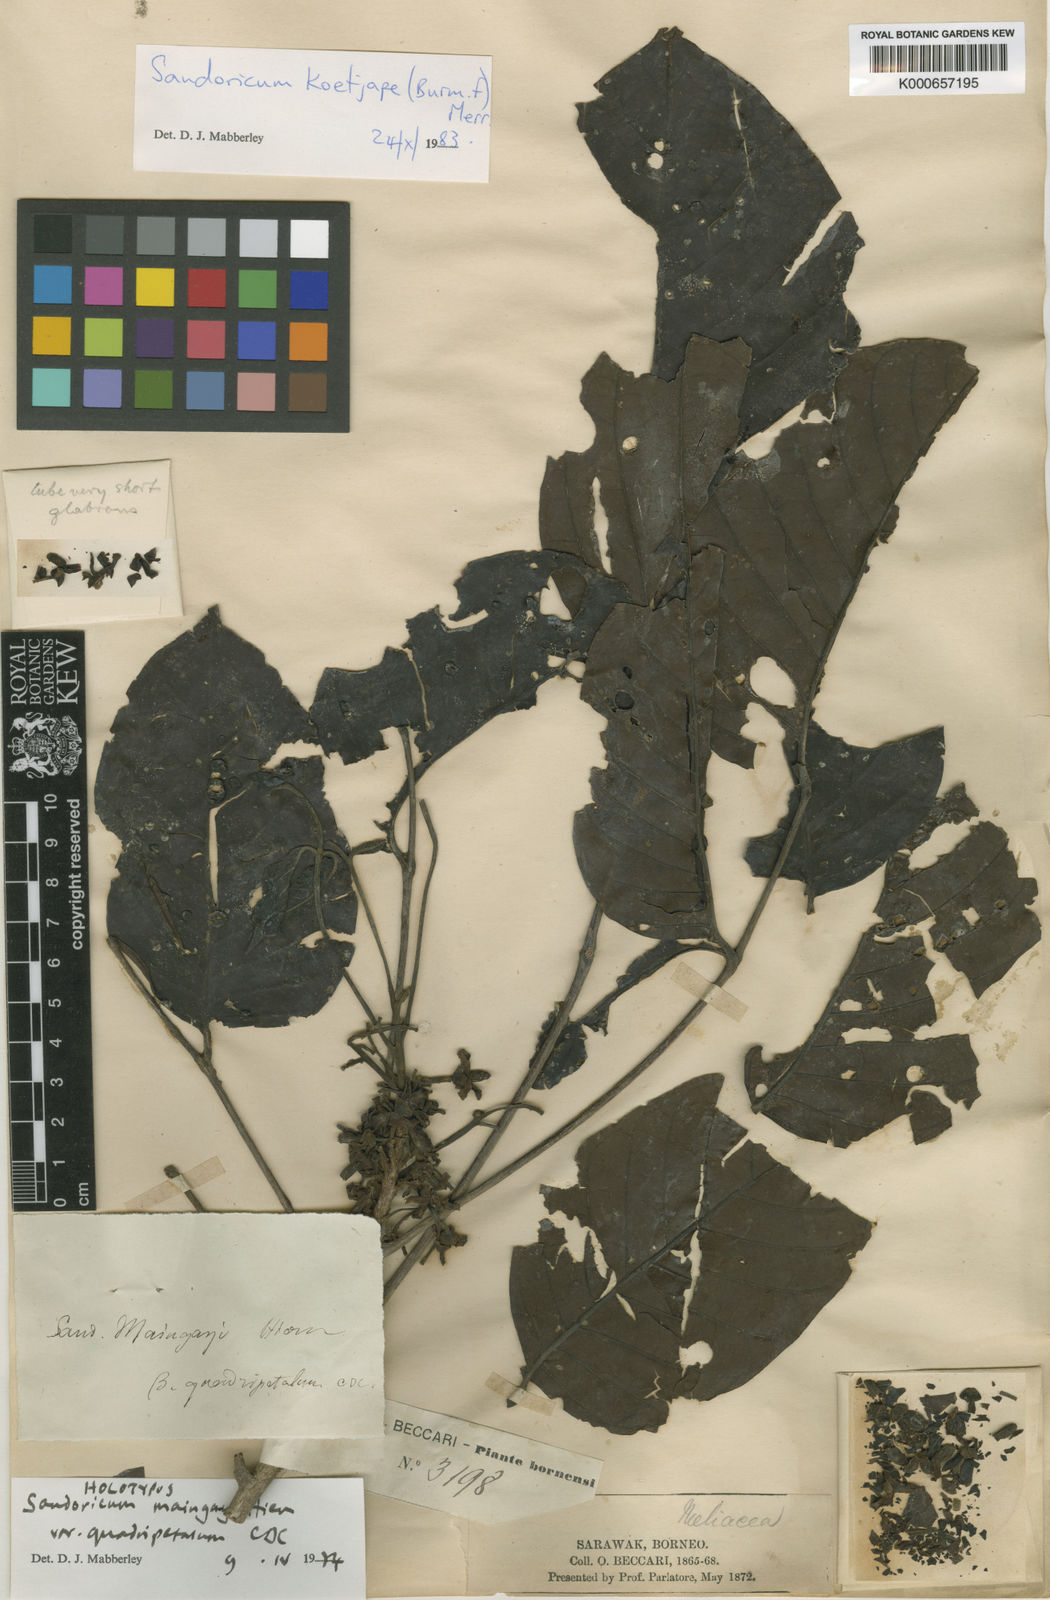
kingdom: Plantae
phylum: Tracheophyta
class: Magnoliopsida
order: Sapindales
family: Meliaceae
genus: Sandoricum
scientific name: Sandoricum koetjape
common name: Santol
